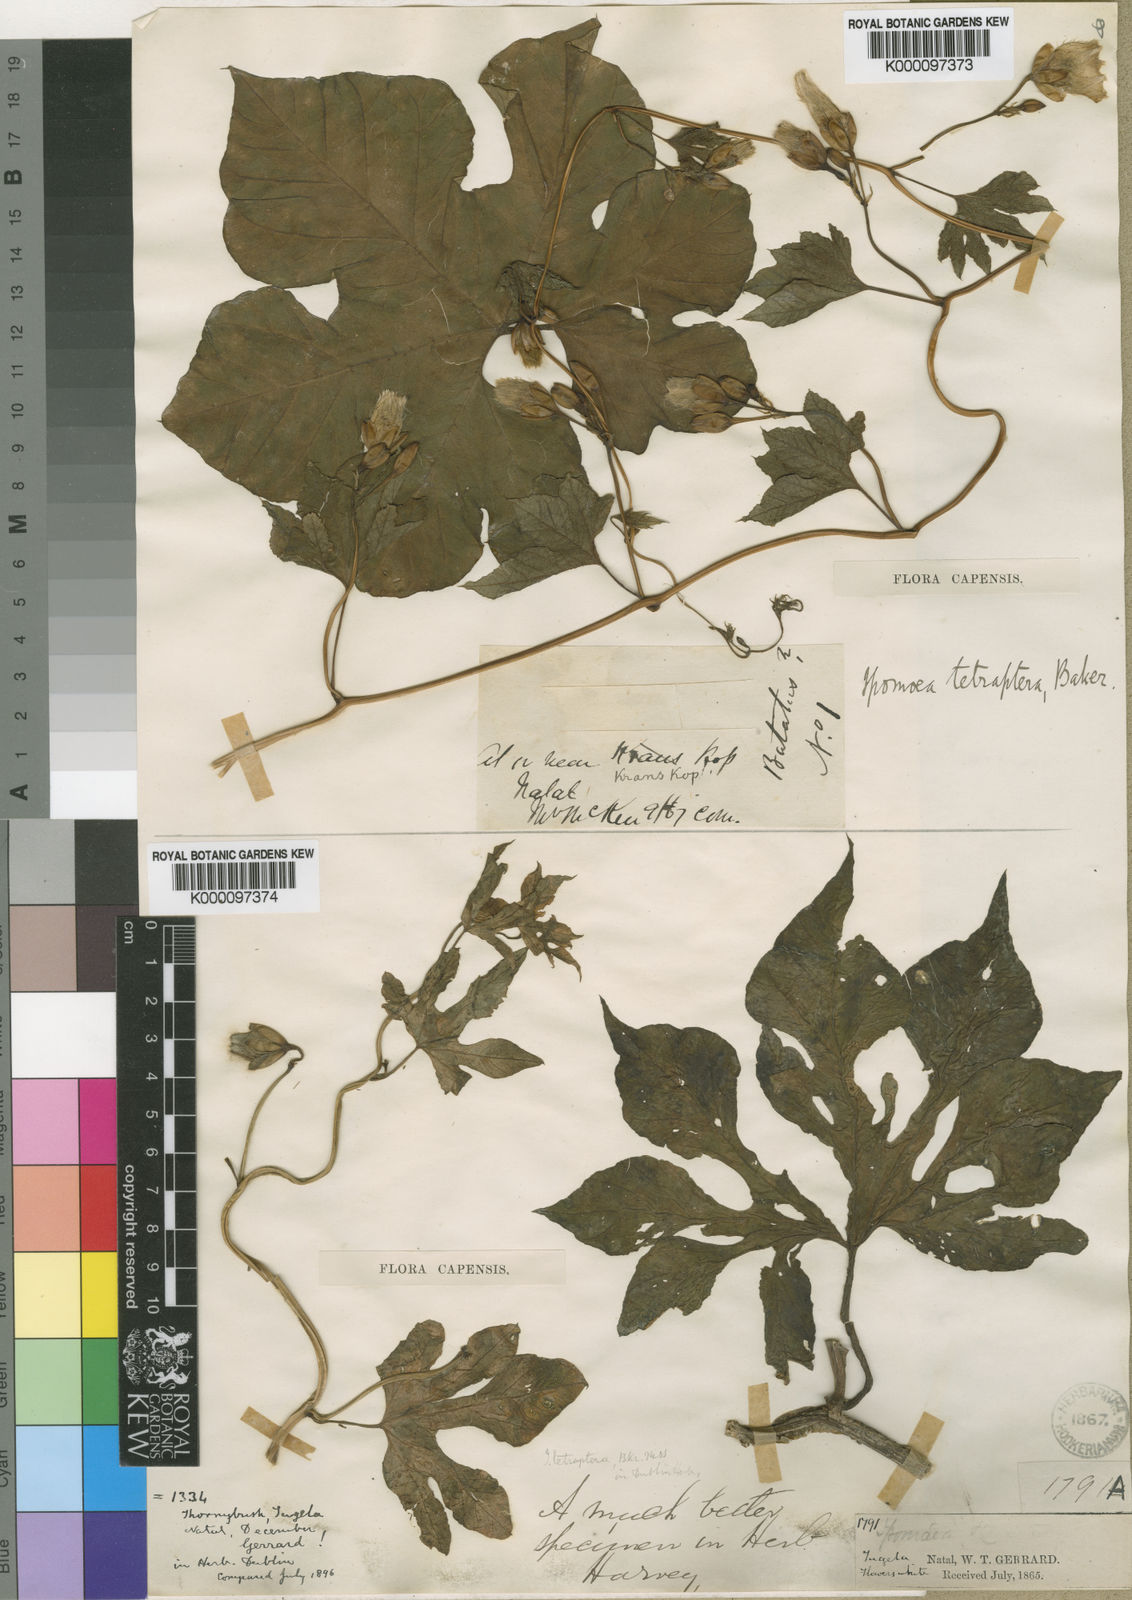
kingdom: Plantae
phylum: Tracheophyta
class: Magnoliopsida
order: Solanales
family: Convolvulaceae
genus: Merremia
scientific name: Merremia pterygocaulos
